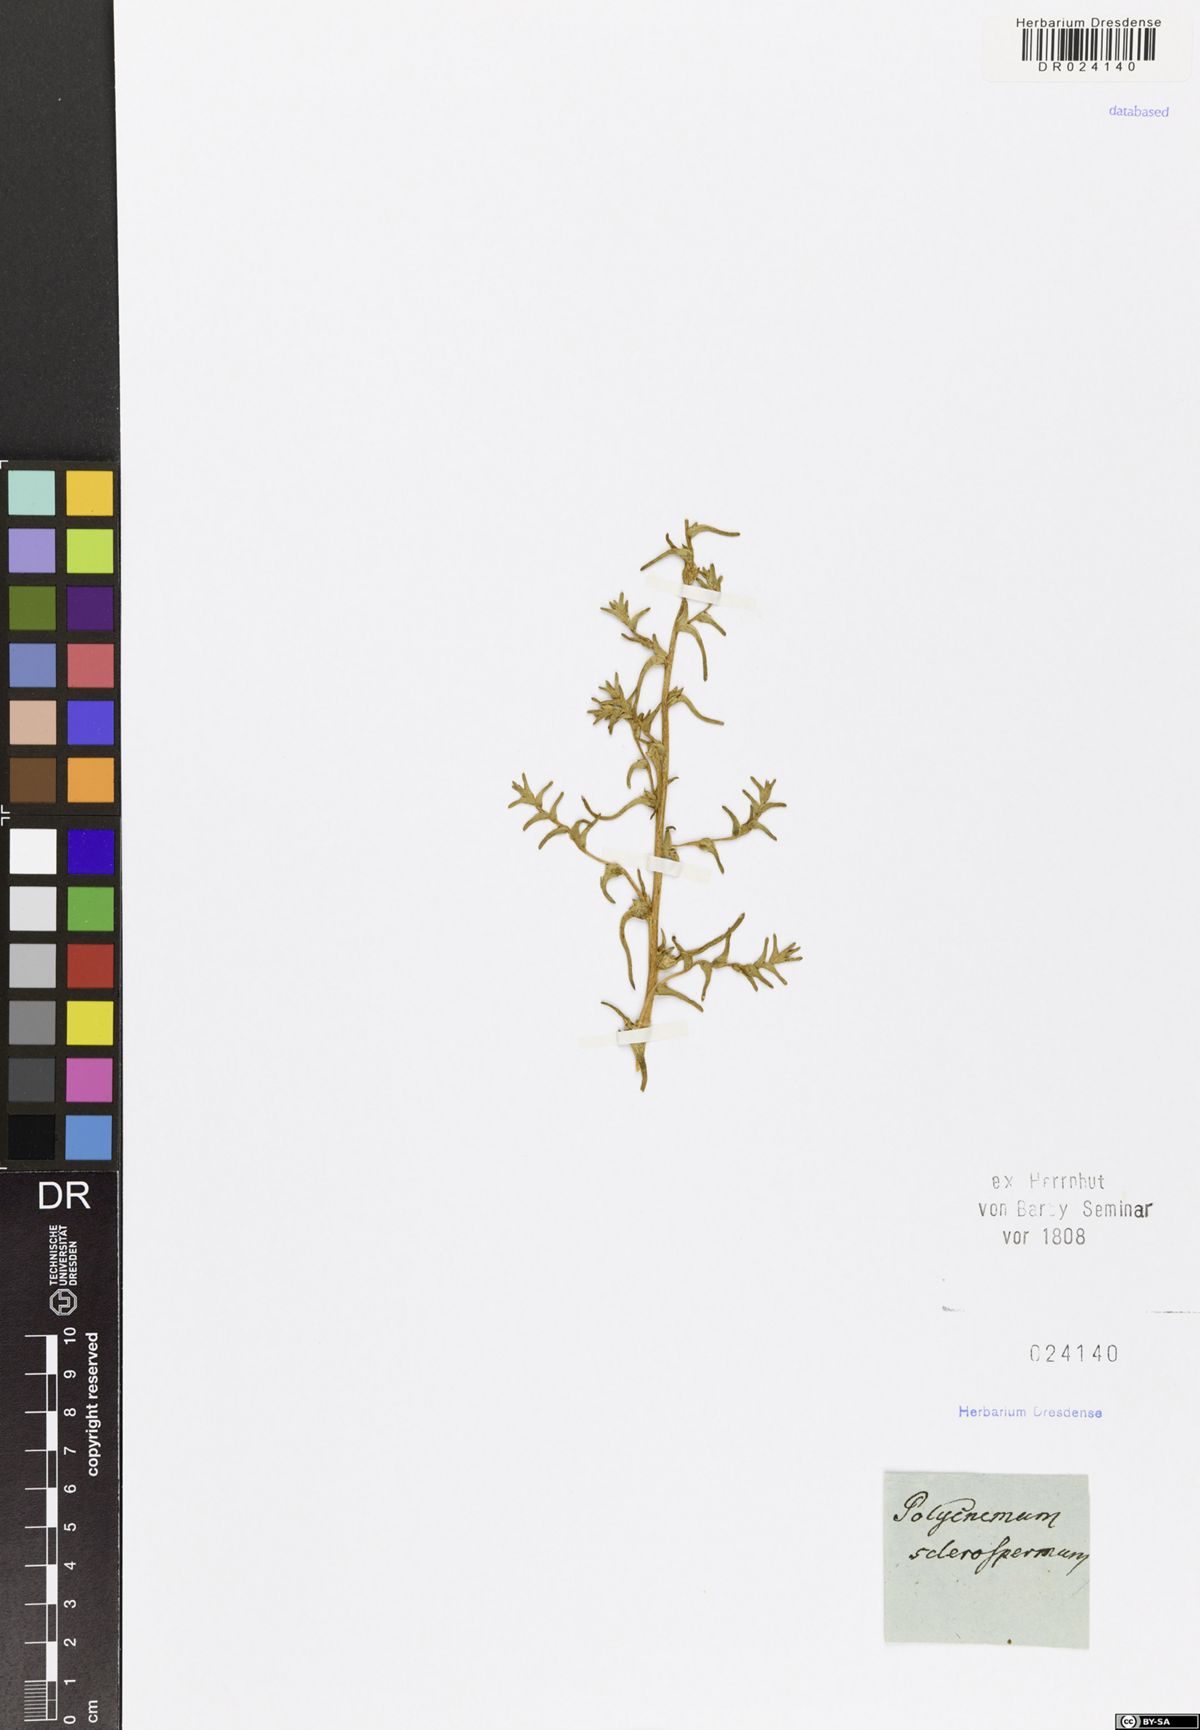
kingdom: Plantae
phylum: Tracheophyta
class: Magnoliopsida
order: Caryophyllales
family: Amaranthaceae
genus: Halimocnemis
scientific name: Halimocnemis sclerosperma
